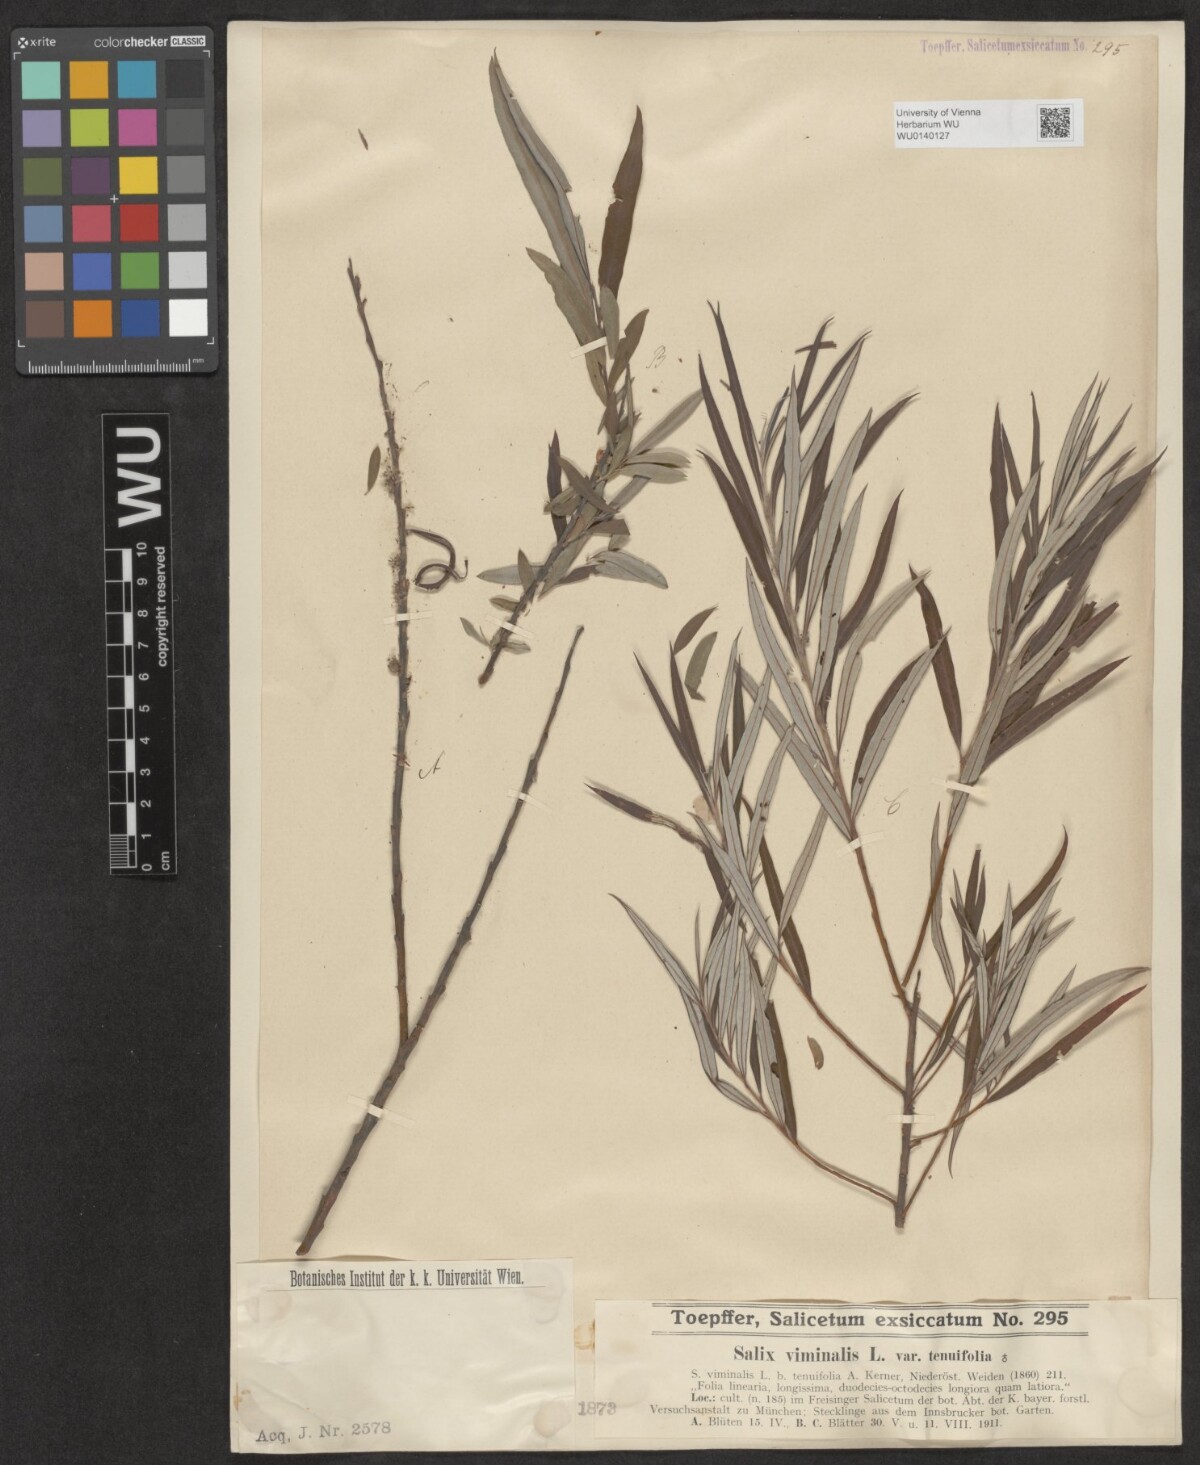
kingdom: Plantae
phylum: Tracheophyta
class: Magnoliopsida
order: Malpighiales
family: Salicaceae
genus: Salix
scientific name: Salix viminalis
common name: Osier
